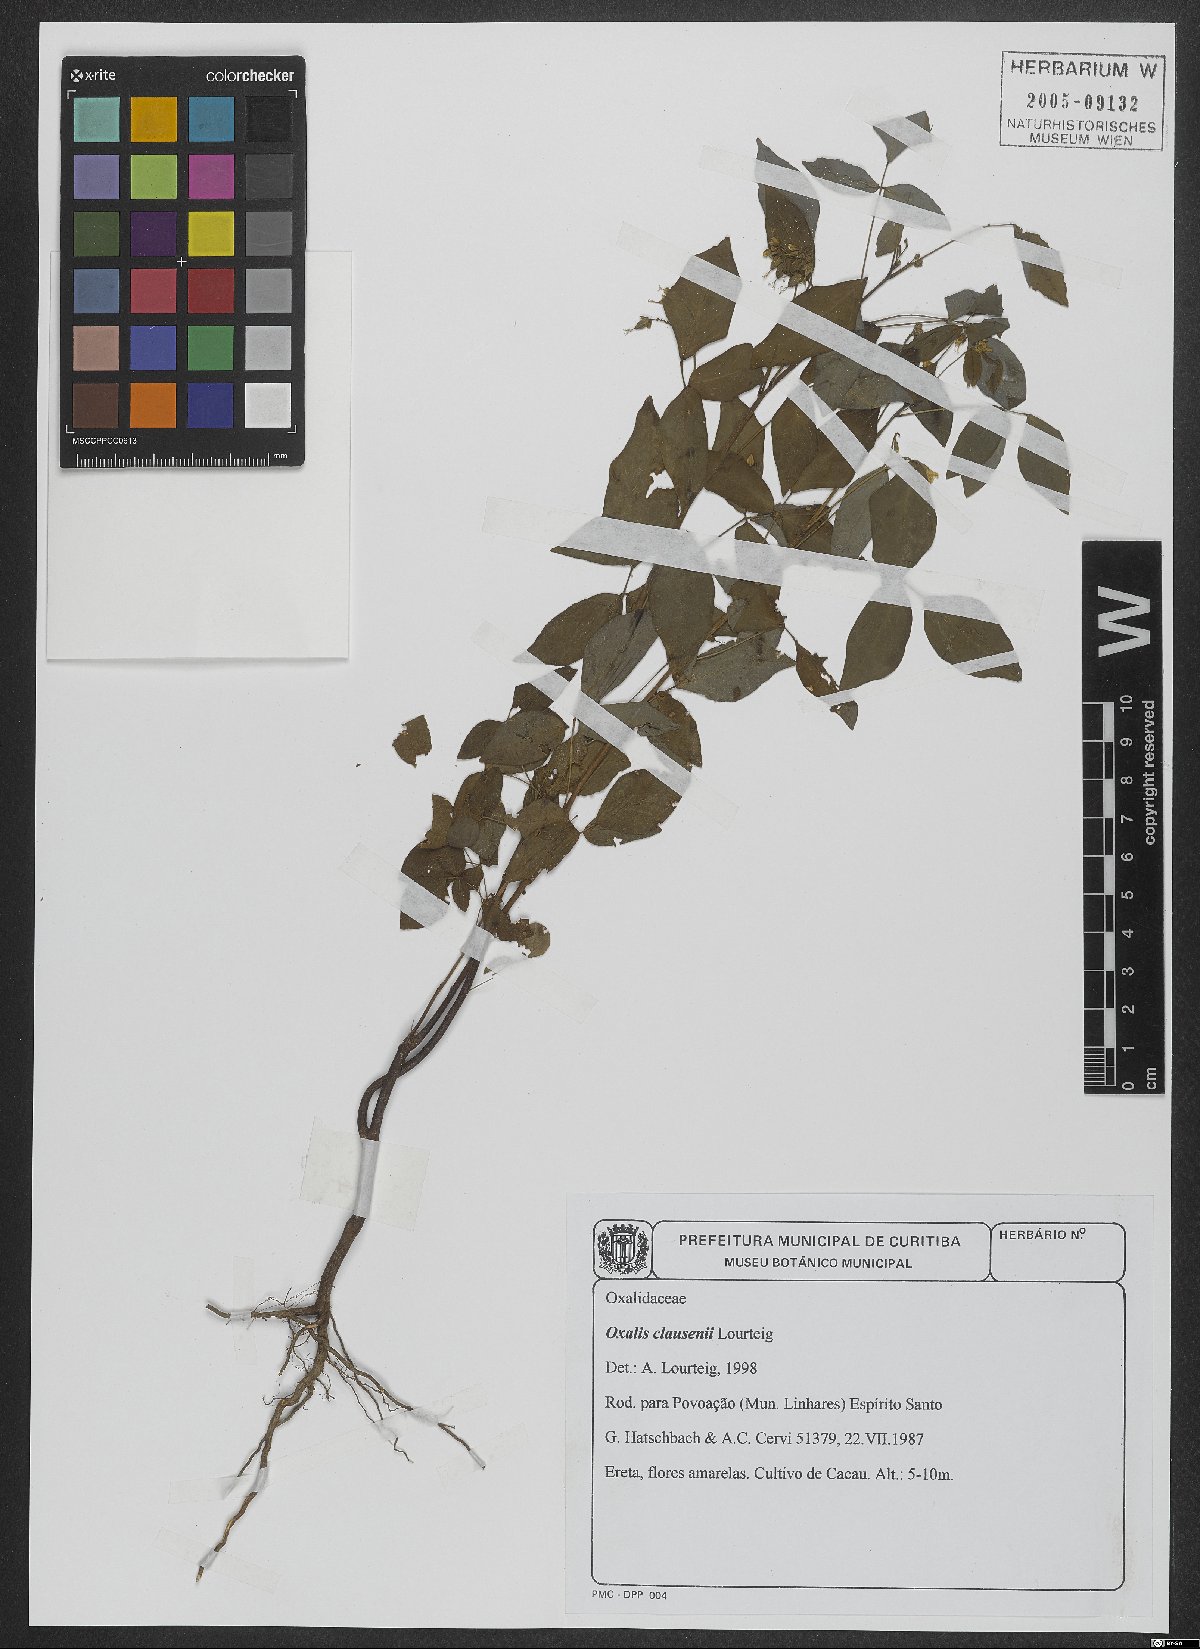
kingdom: Plantae
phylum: Tracheophyta
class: Magnoliopsida
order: Oxalidales
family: Oxalidaceae
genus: Oxalis
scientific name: Oxalis clausenii
